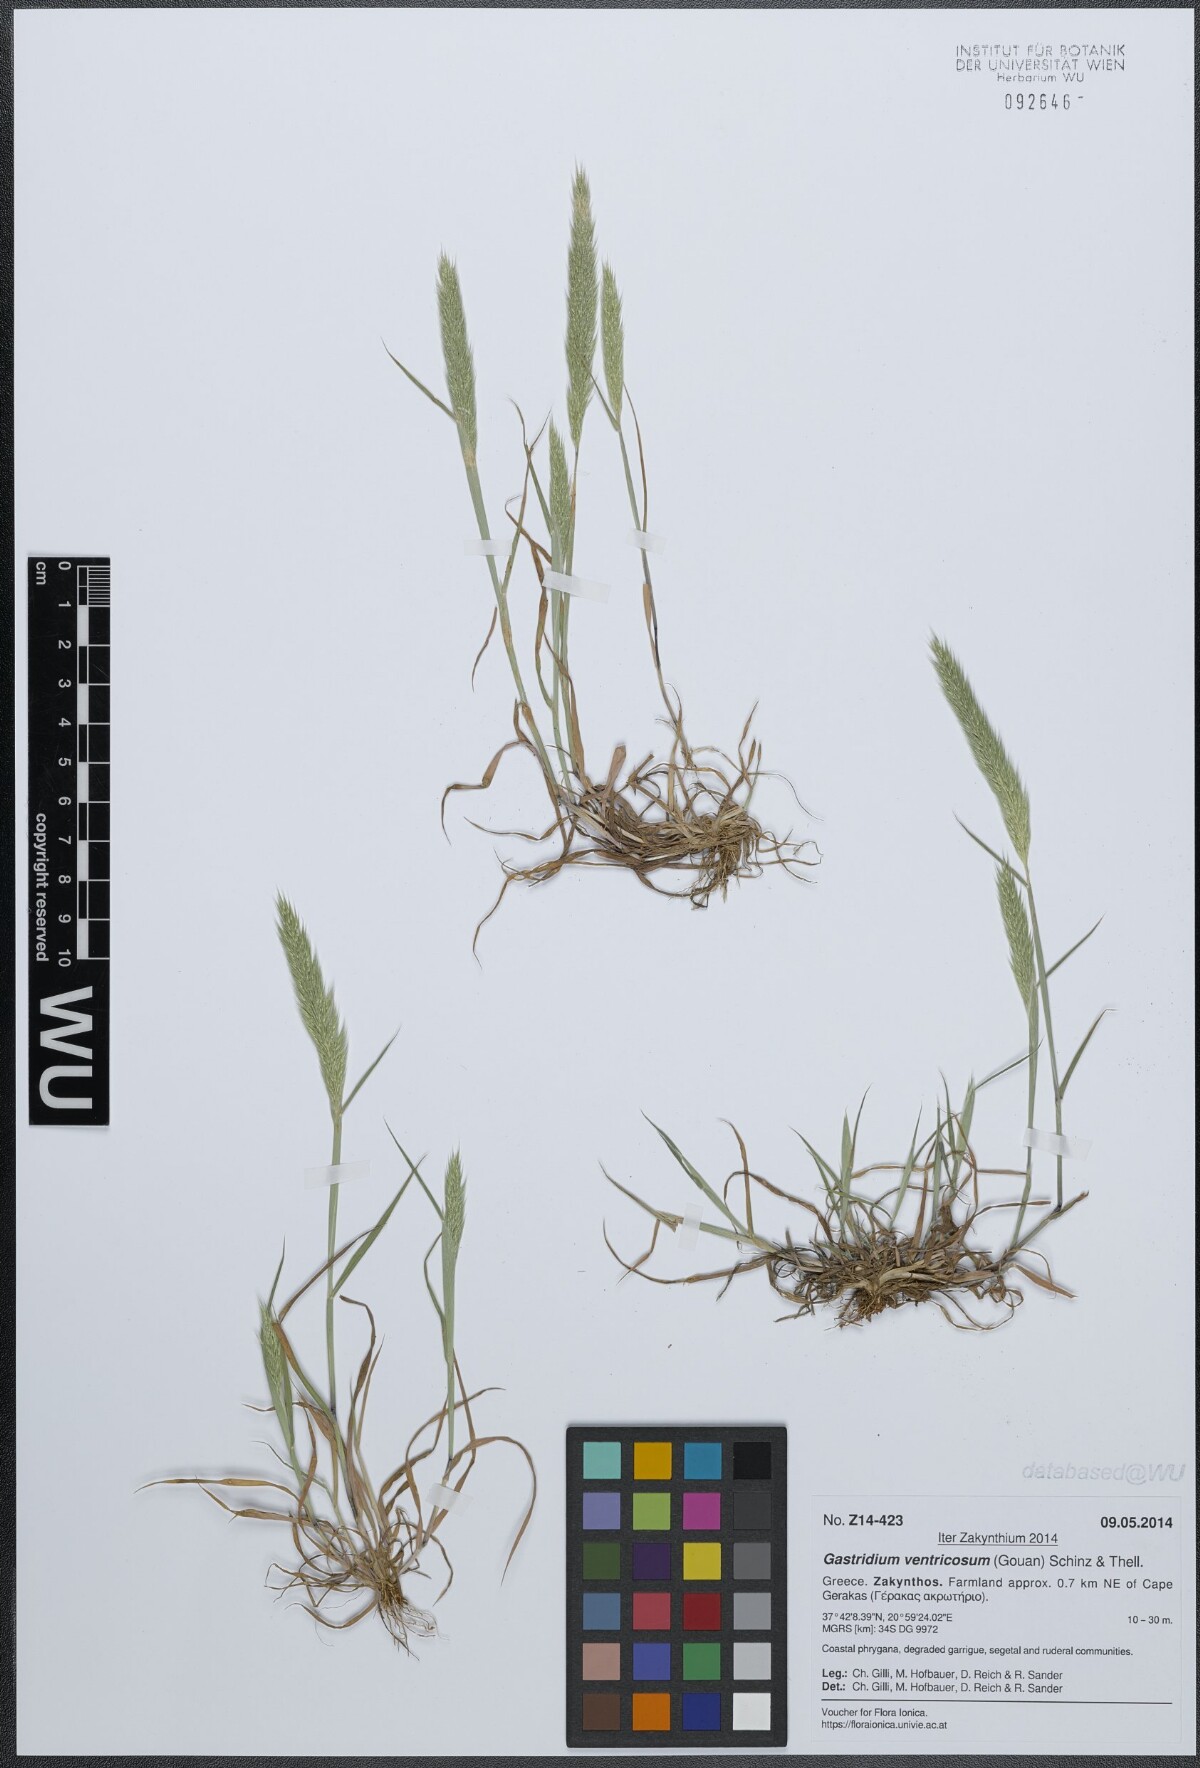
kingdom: Plantae
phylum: Tracheophyta
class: Liliopsida
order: Poales
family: Poaceae
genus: Gastridium
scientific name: Gastridium ventricosum
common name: Nit-grass
